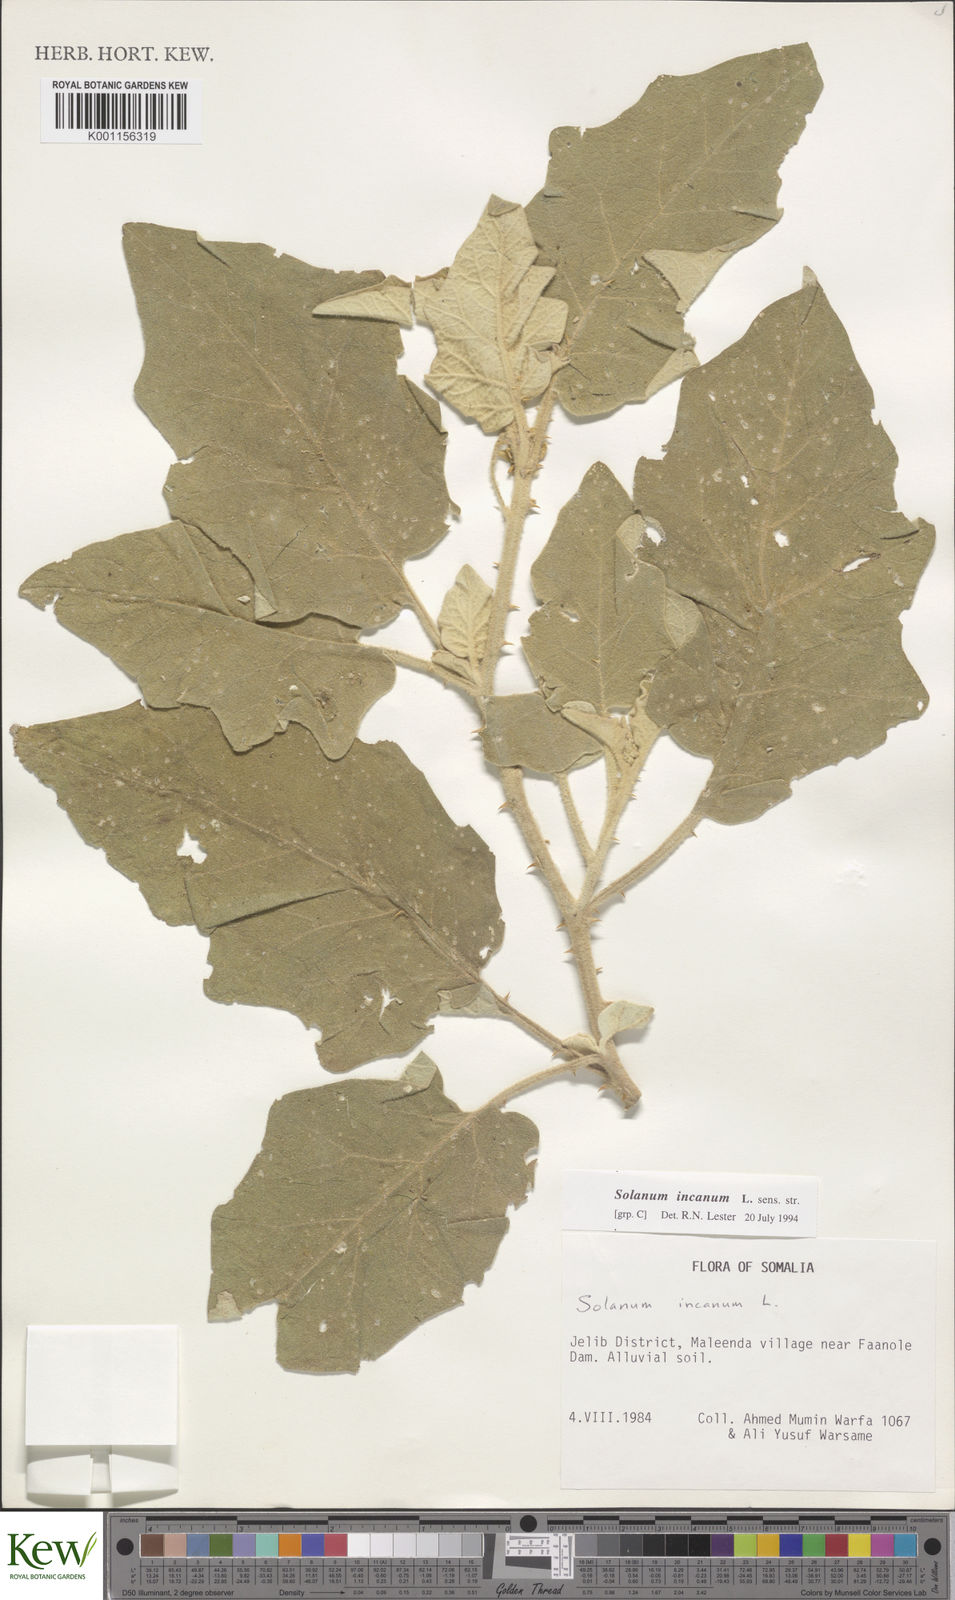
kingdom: Plantae
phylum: Tracheophyta
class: Magnoliopsida
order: Solanales
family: Solanaceae
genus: Solanum
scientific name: Solanum incanum
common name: Bitter apple
